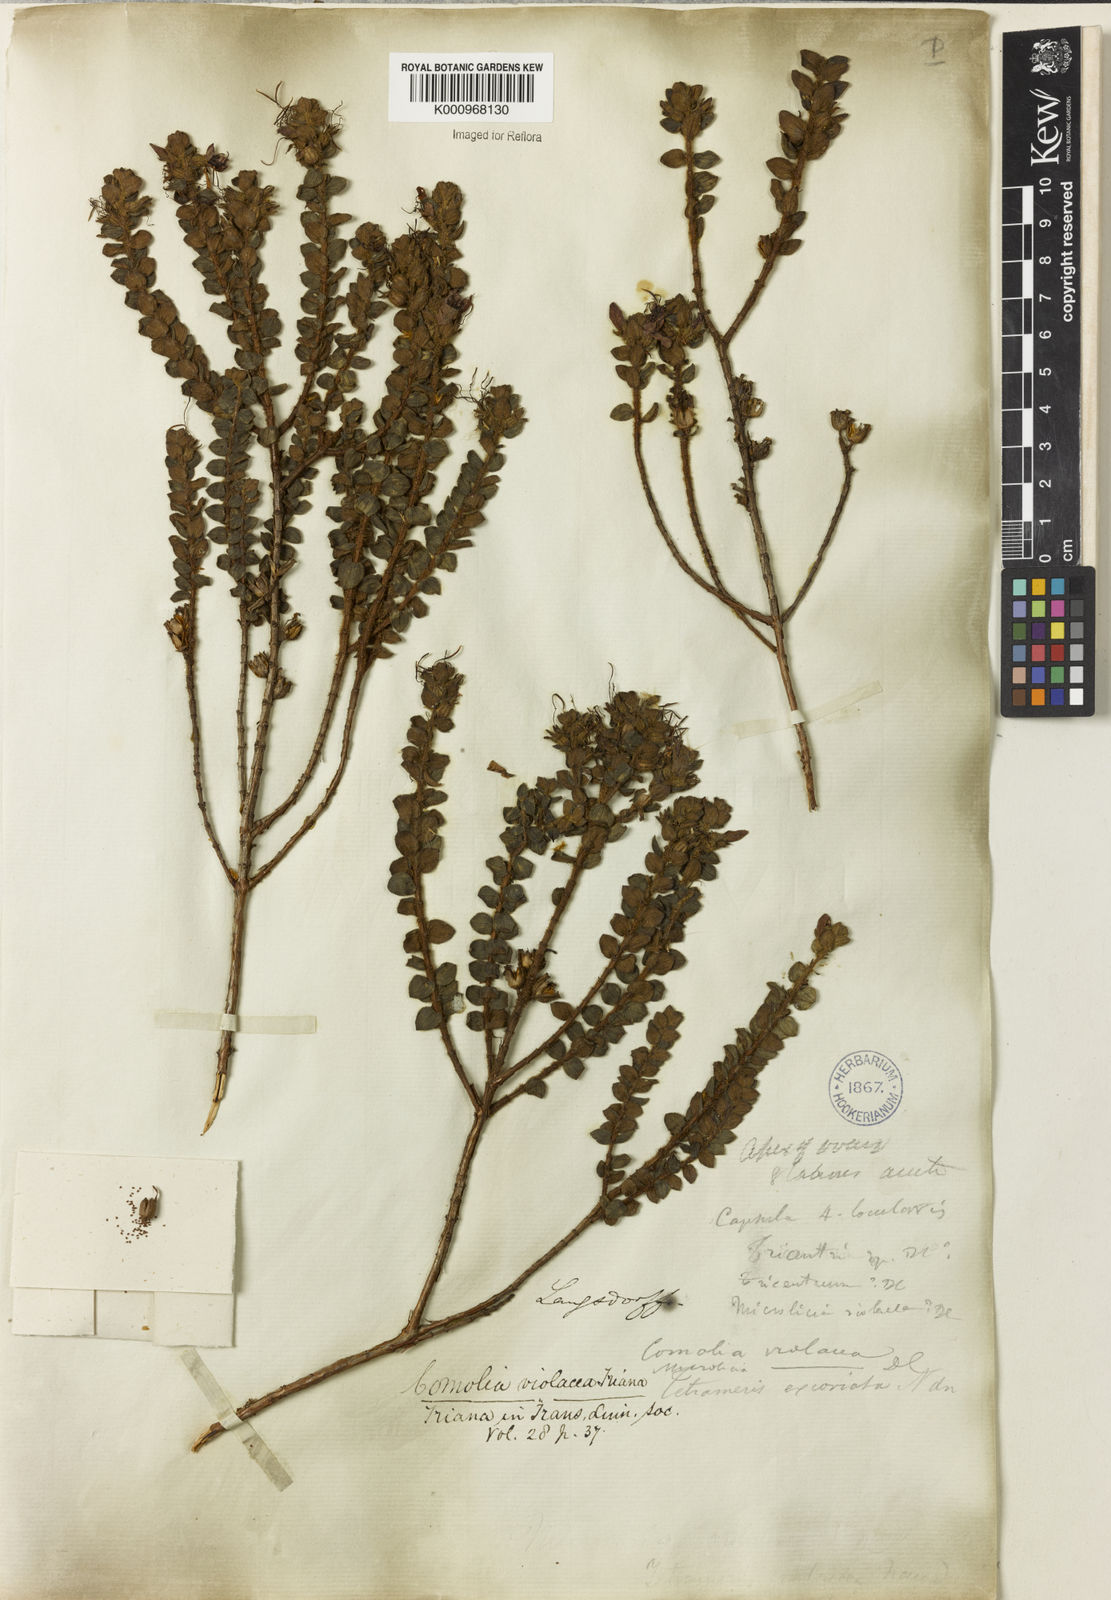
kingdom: Plantae
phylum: Tracheophyta
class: Magnoliopsida
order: Myrtales
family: Melastomataceae
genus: Fritzschia
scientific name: Fritzschia sessilis
